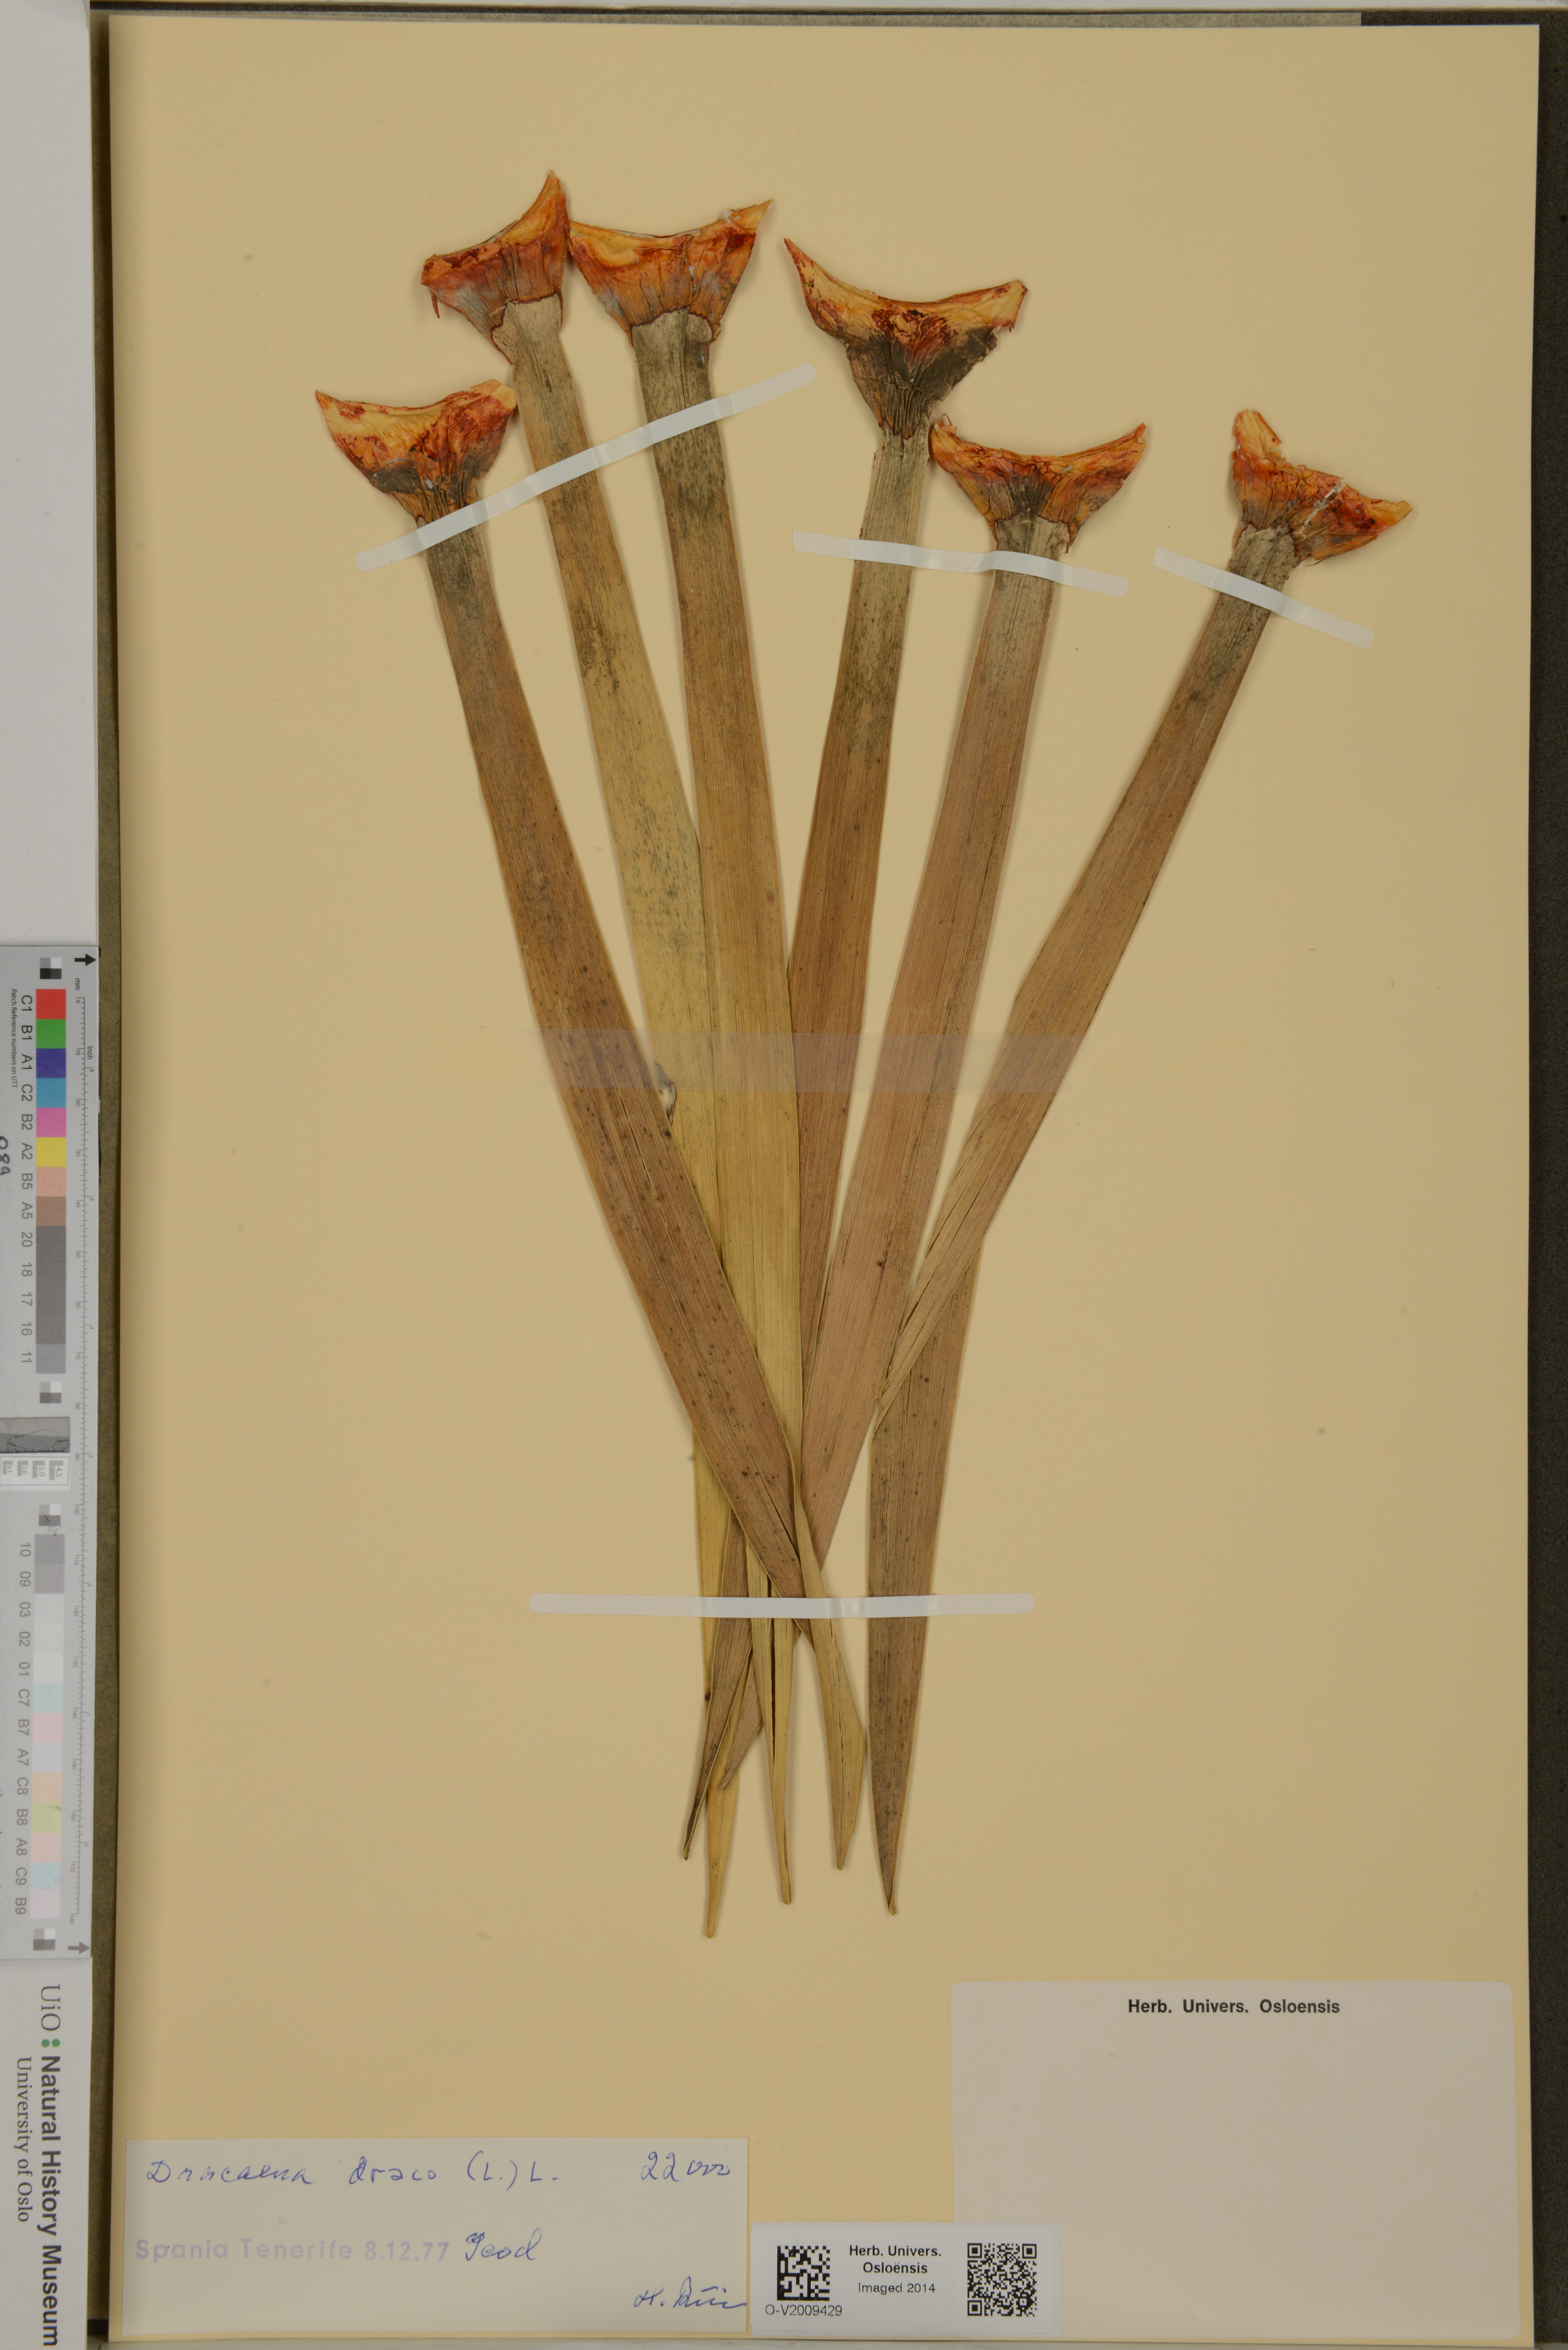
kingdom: Plantae
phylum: Tracheophyta
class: Liliopsida
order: Asparagales
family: Asparagaceae
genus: Dracaena
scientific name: Dracaena draco
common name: Canary island dragon tree
